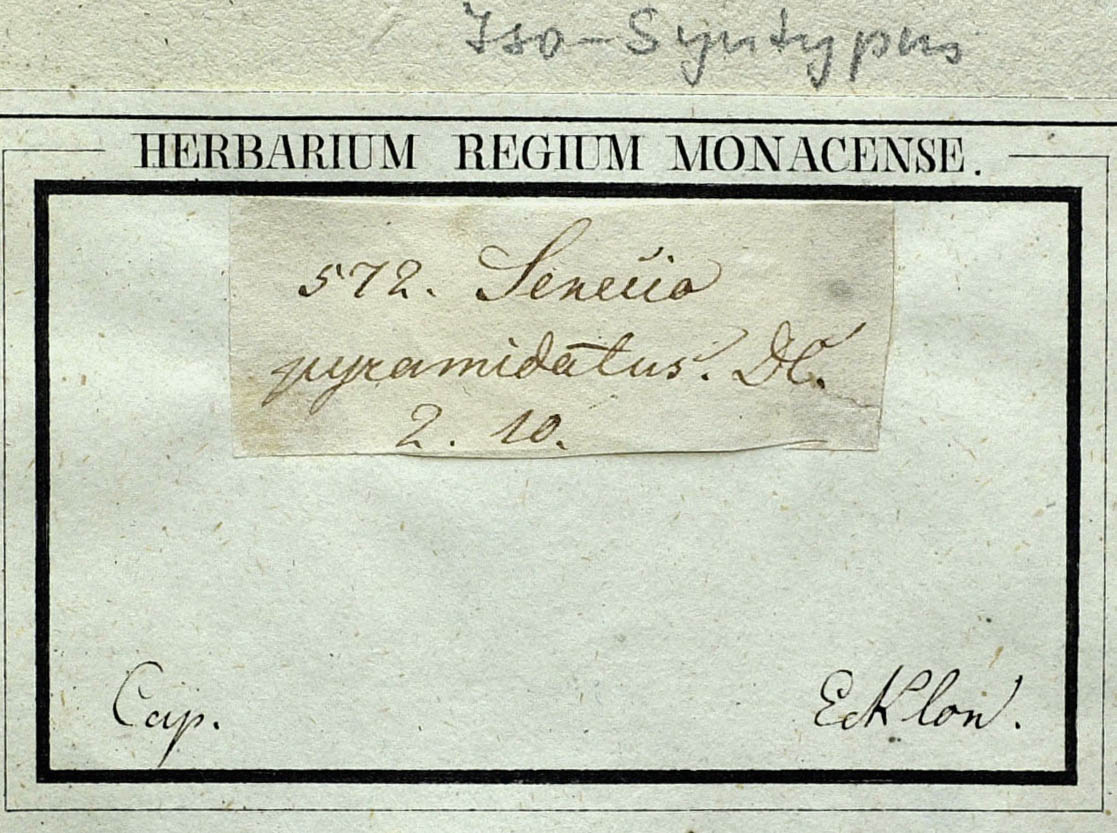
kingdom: Plantae
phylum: Tracheophyta
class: Magnoliopsida
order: Asterales
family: Asteraceae
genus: Caputia
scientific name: Caputia pyramidata
